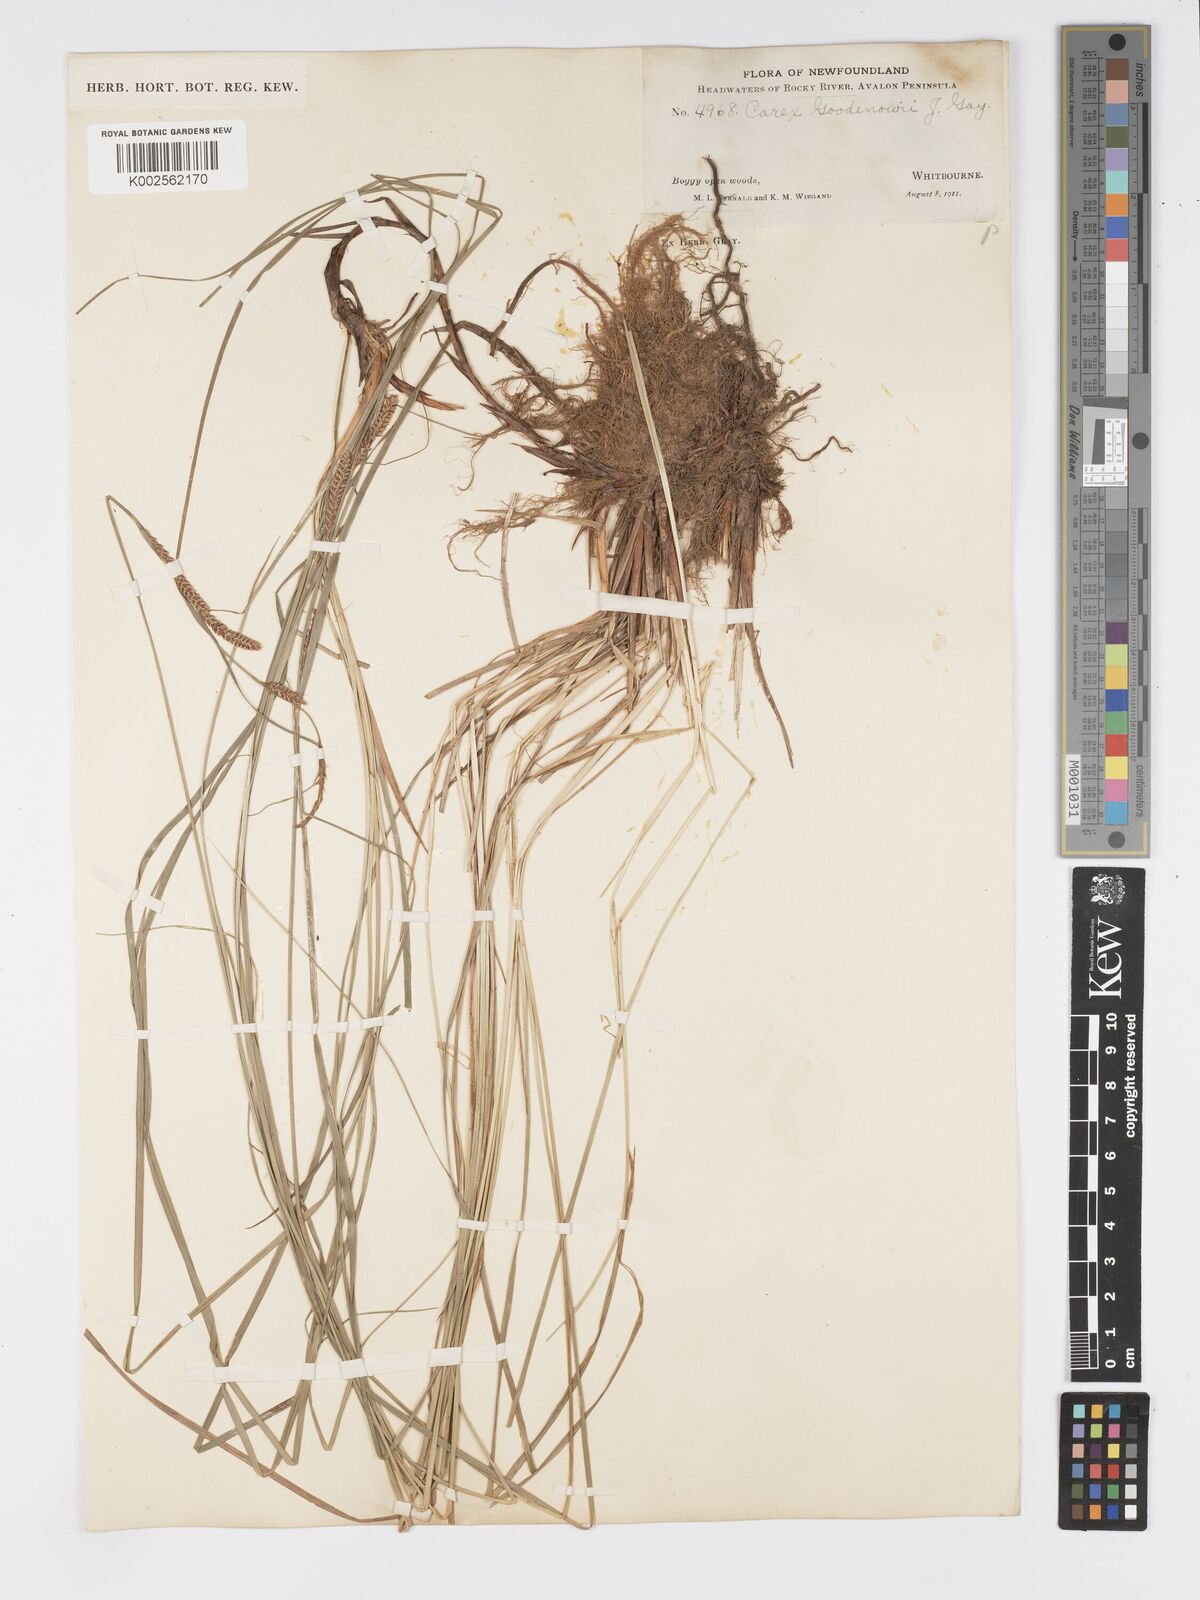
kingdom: Plantae
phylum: Tracheophyta
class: Liliopsida
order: Poales
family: Cyperaceae
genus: Carex
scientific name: Carex nigra
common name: Common sedge
